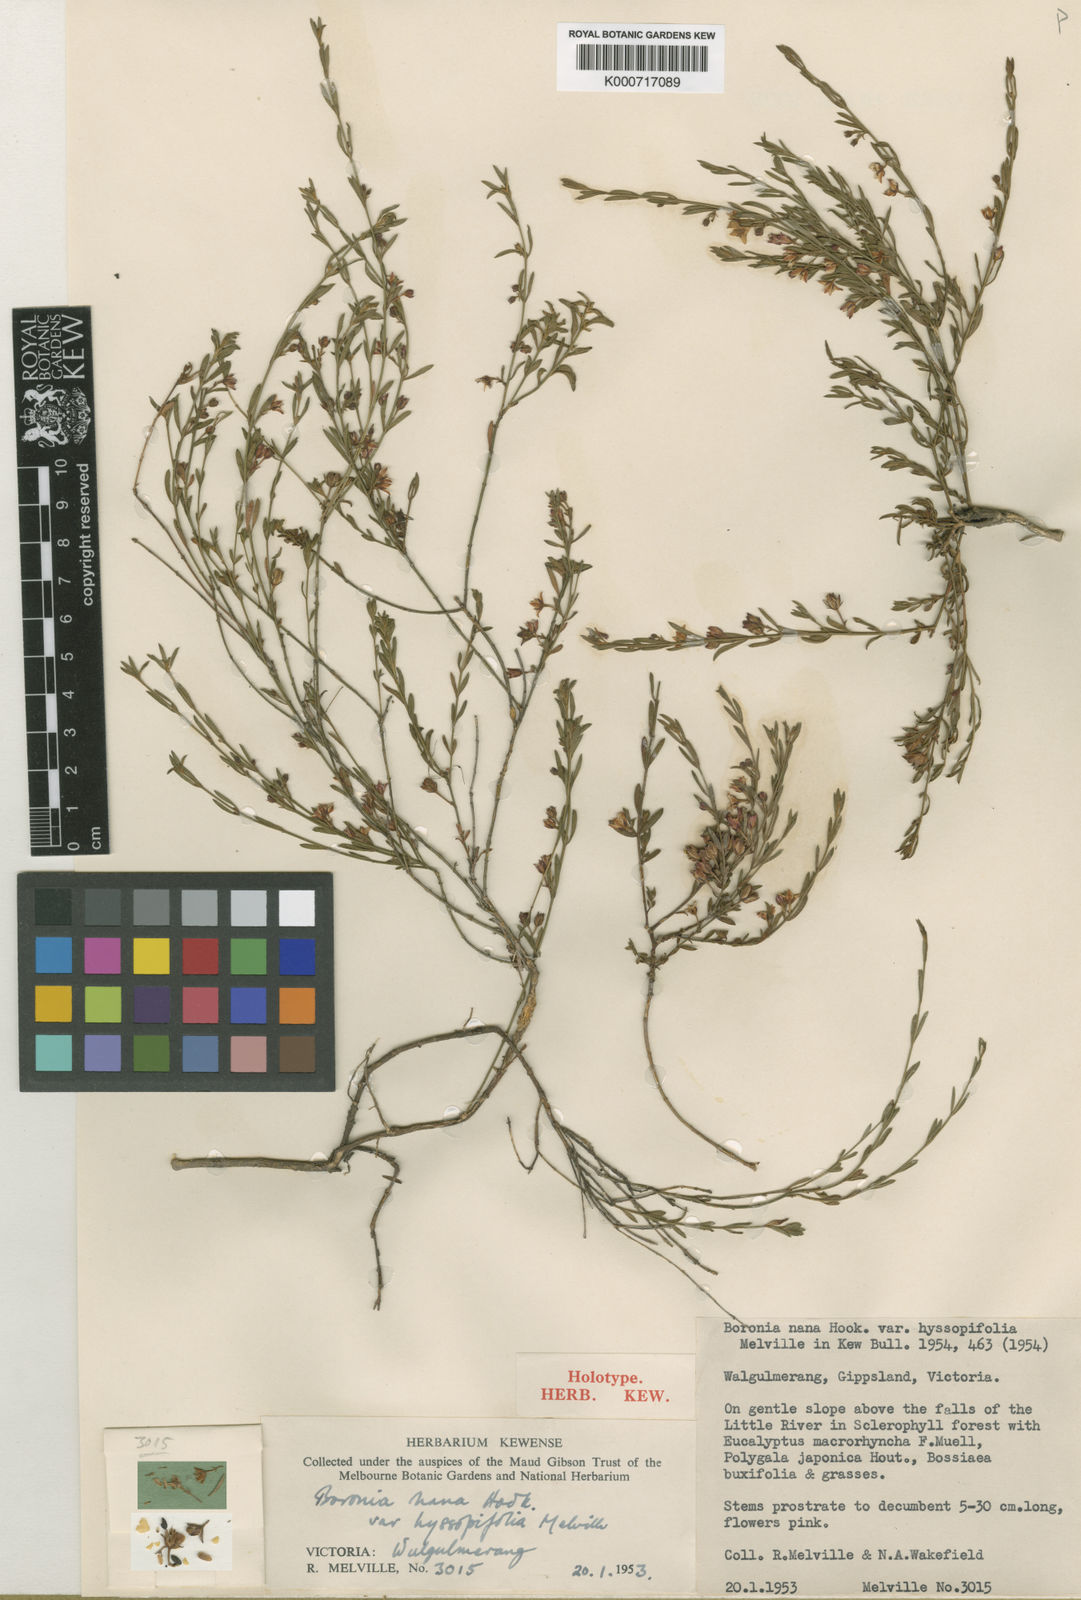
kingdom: Plantae
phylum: Tracheophyta
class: Magnoliopsida
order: Sapindales
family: Rutaceae
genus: Cyanothamnus
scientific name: Cyanothamnus nanus
